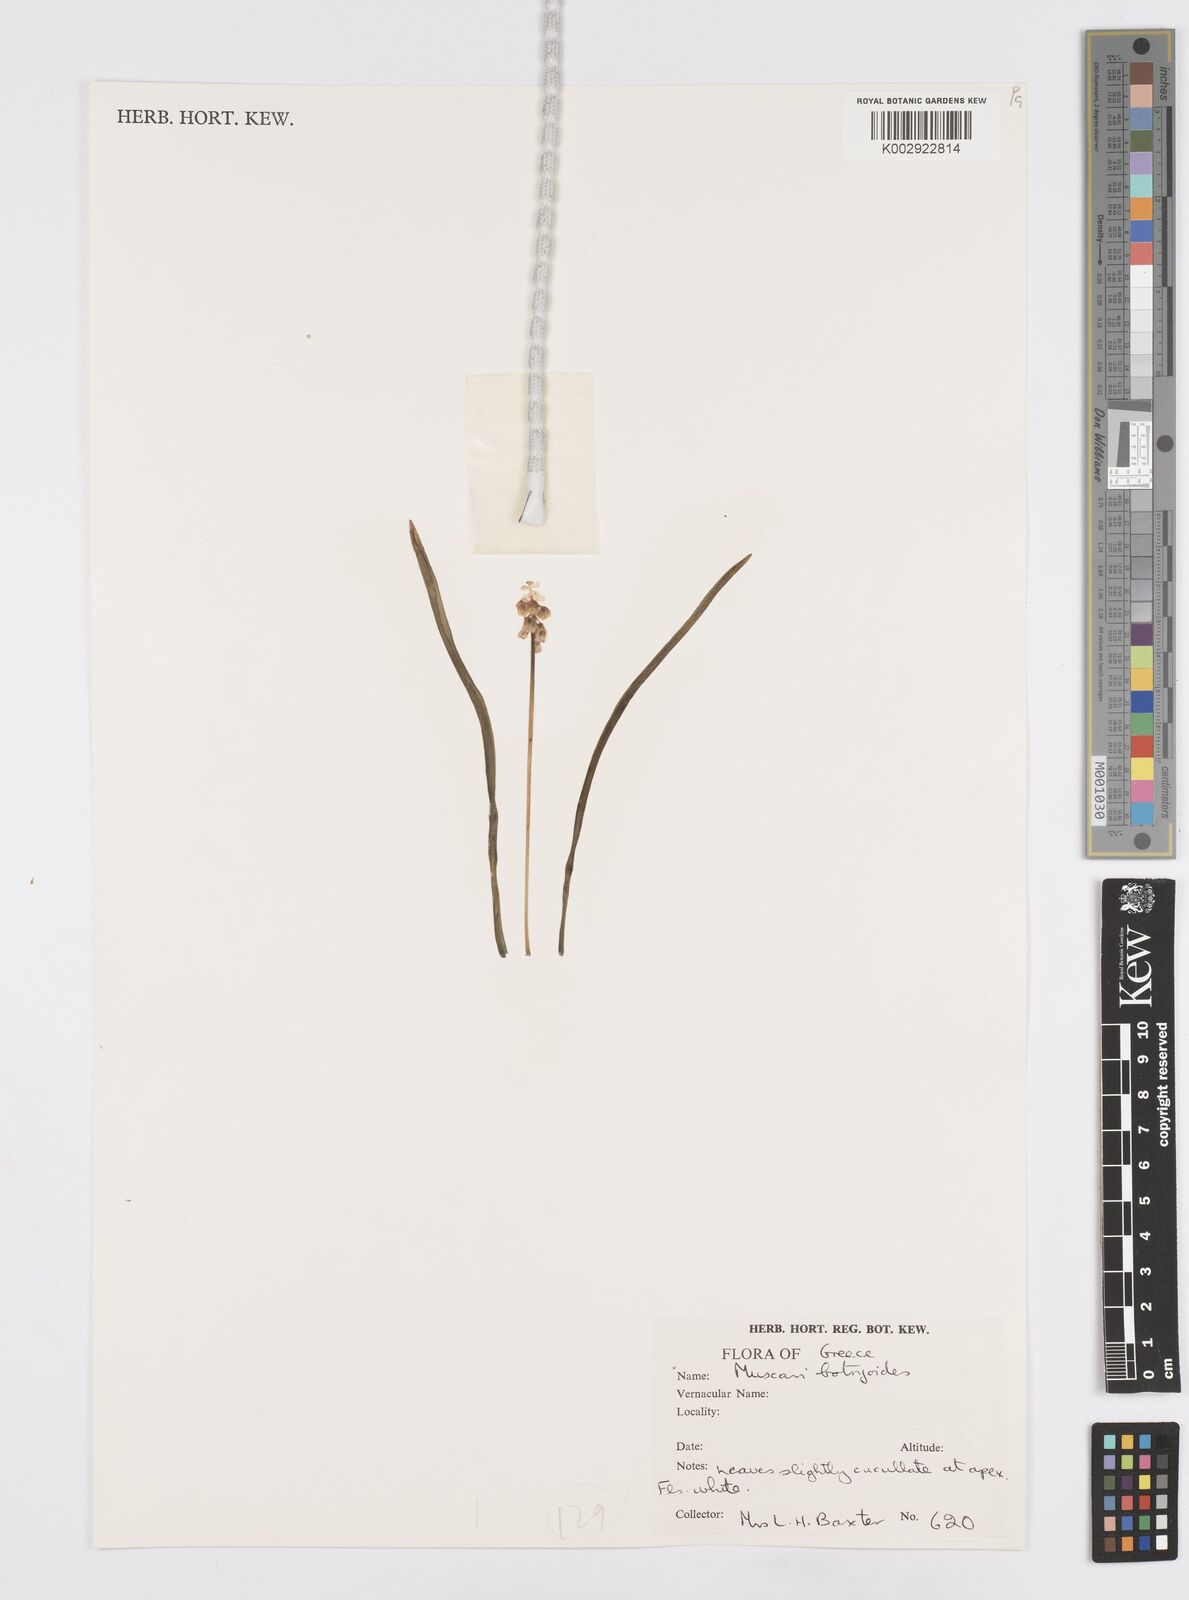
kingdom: Plantae
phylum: Tracheophyta
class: Liliopsida
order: Asparagales
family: Asparagaceae
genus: Muscari
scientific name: Muscari botryoides
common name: Compact grape-hyacinth
